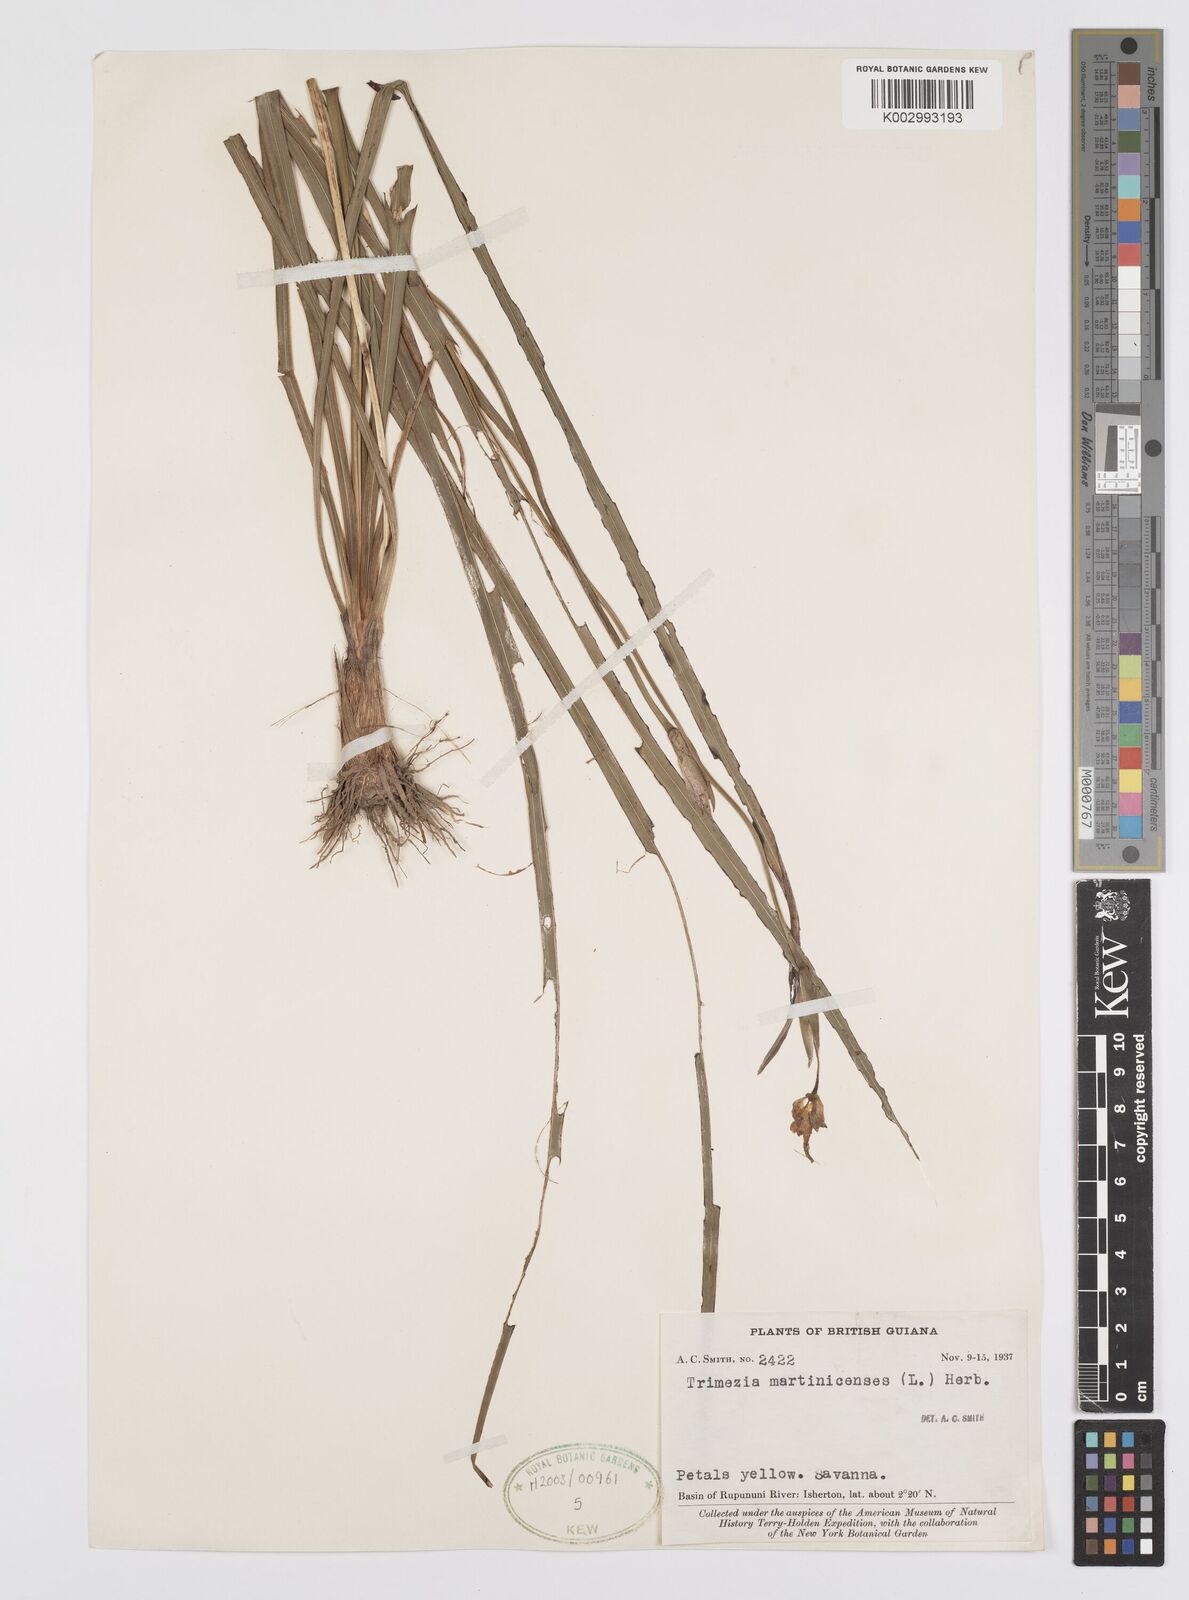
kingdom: Plantae
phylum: Tracheophyta
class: Liliopsida
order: Asparagales
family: Iridaceae
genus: Trimezia
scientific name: Trimezia martinicensis
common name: Martinique trimezia
